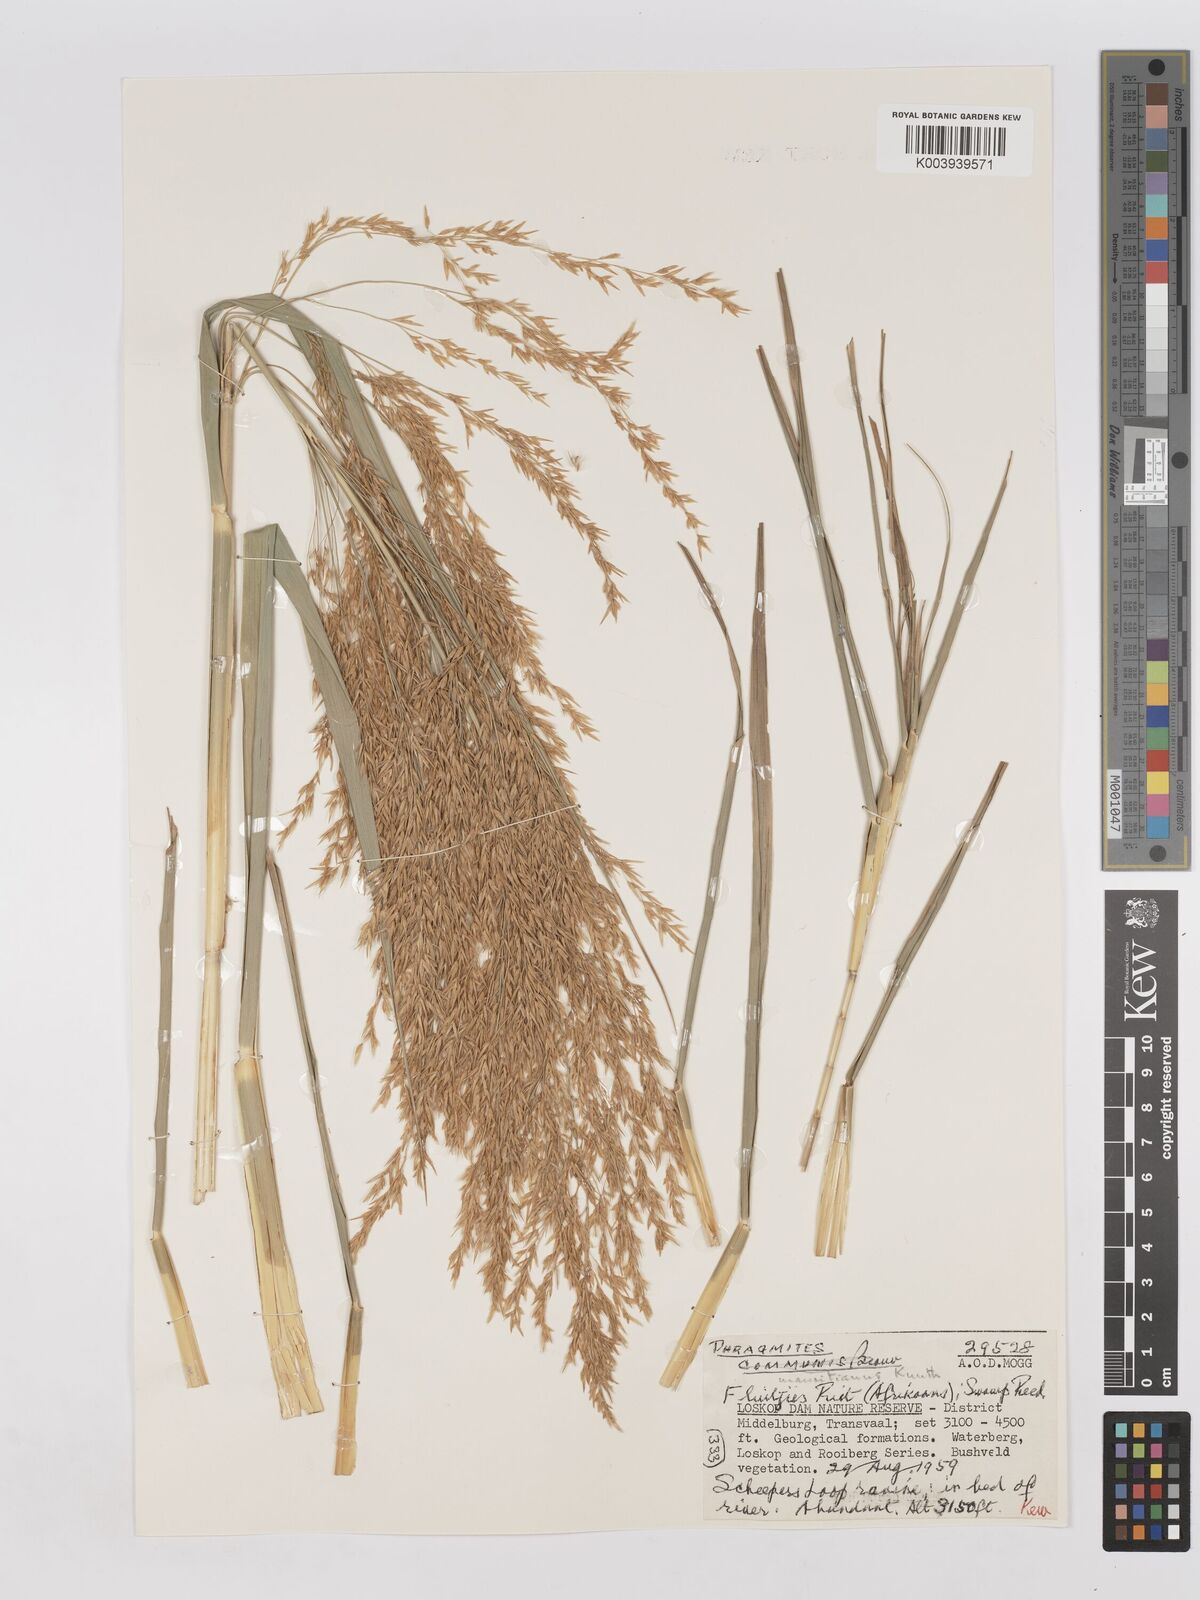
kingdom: Plantae
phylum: Tracheophyta
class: Liliopsida
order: Poales
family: Poaceae
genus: Phragmites
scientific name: Phragmites mauritianus
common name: Reed grass
